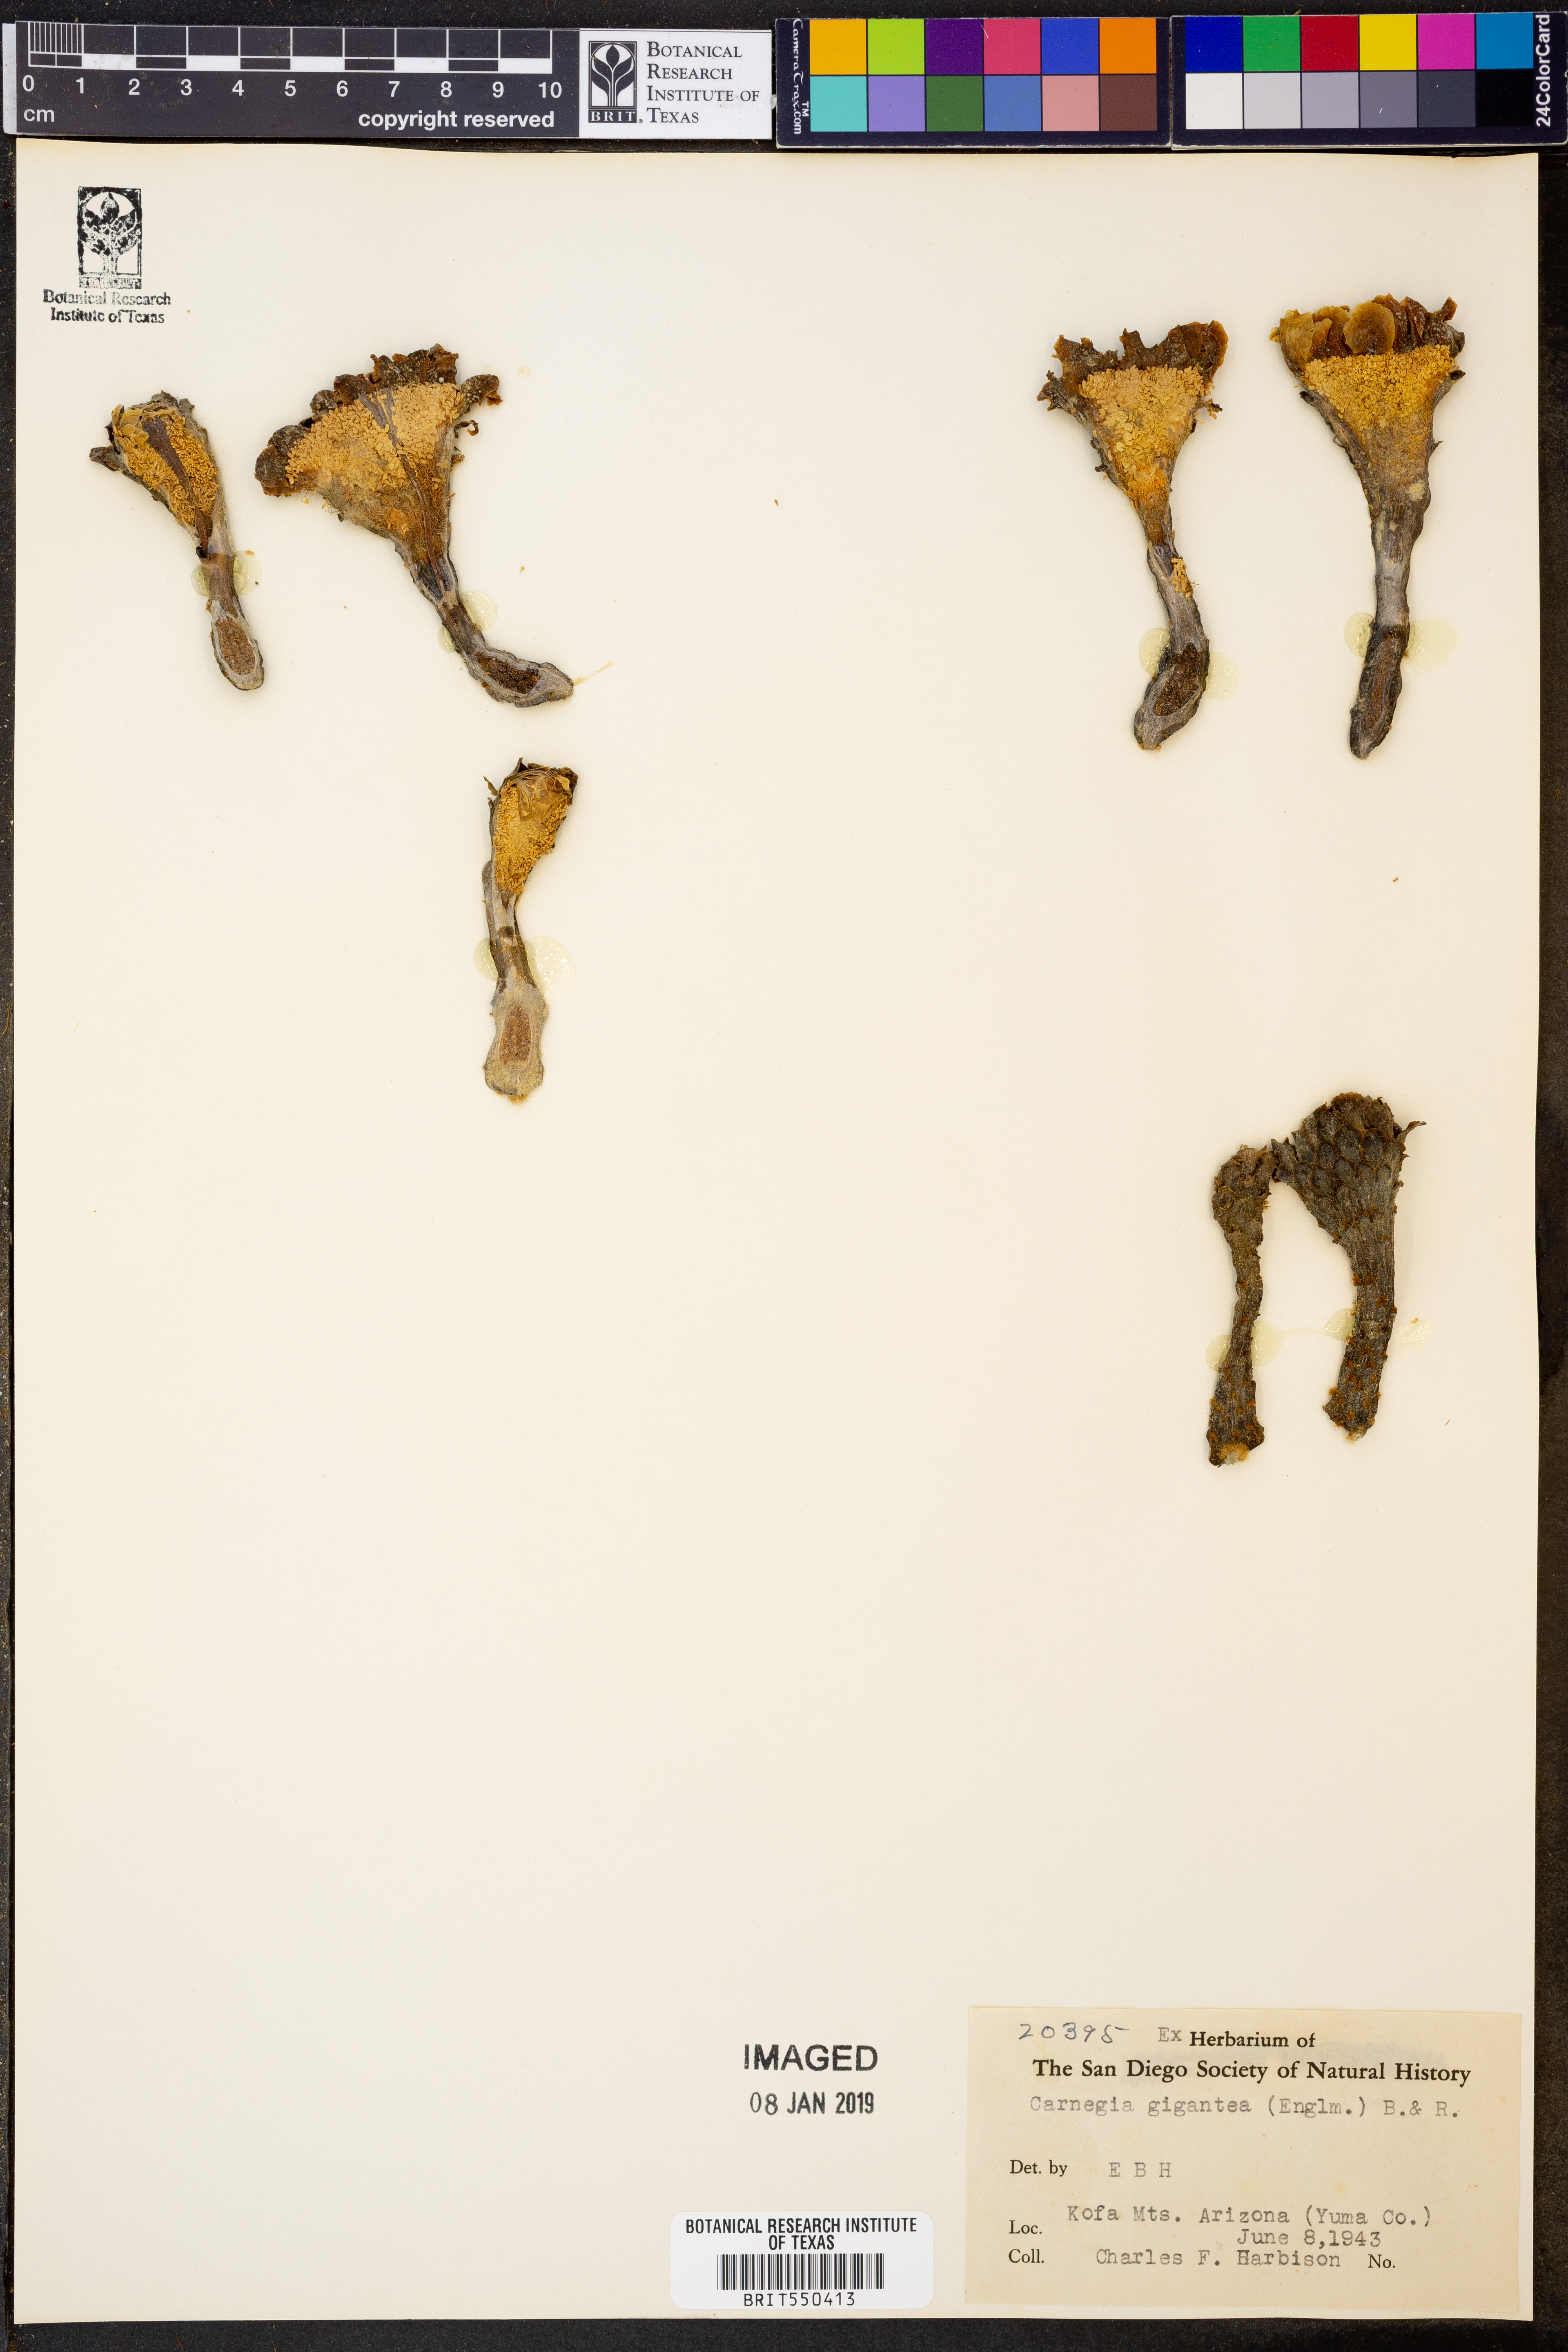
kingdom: Plantae
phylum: Tracheophyta
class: Magnoliopsida
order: Caryophyllales
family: Cactaceae
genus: Carnegiea
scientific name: Carnegiea gigantea
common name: Saguaro
